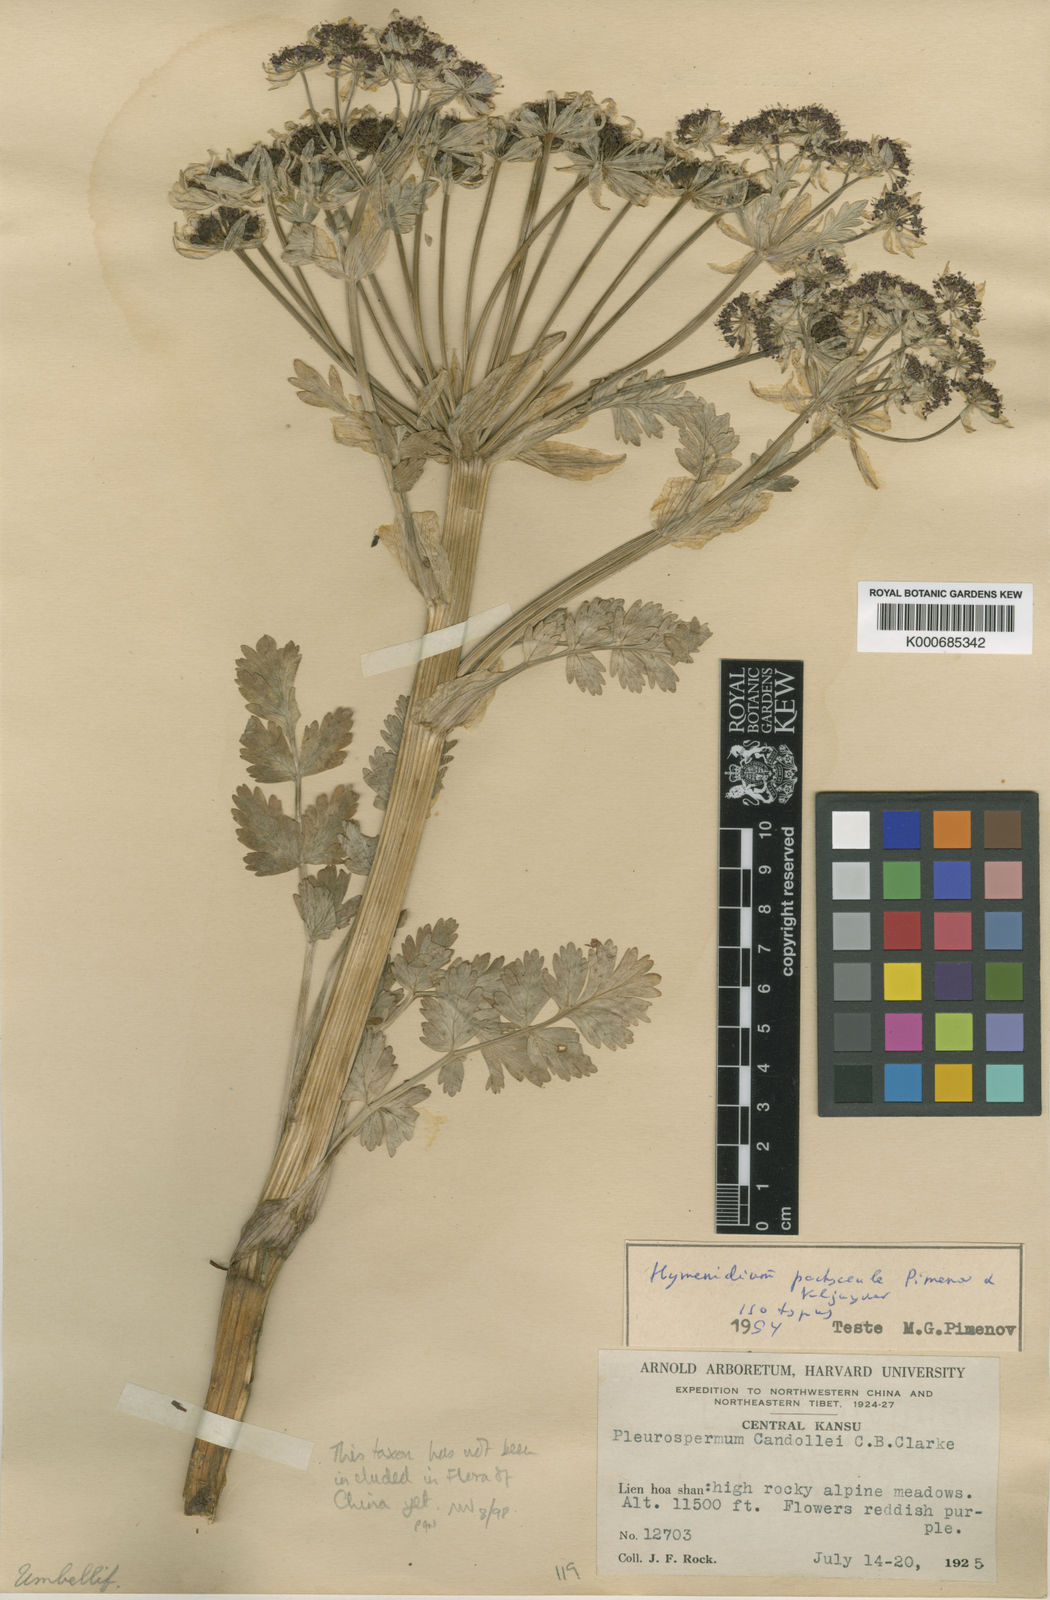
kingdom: Plantae
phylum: Tracheophyta
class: Magnoliopsida
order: Apiales
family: Apiaceae
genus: Hymenidium
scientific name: Hymenidium pachycaule
